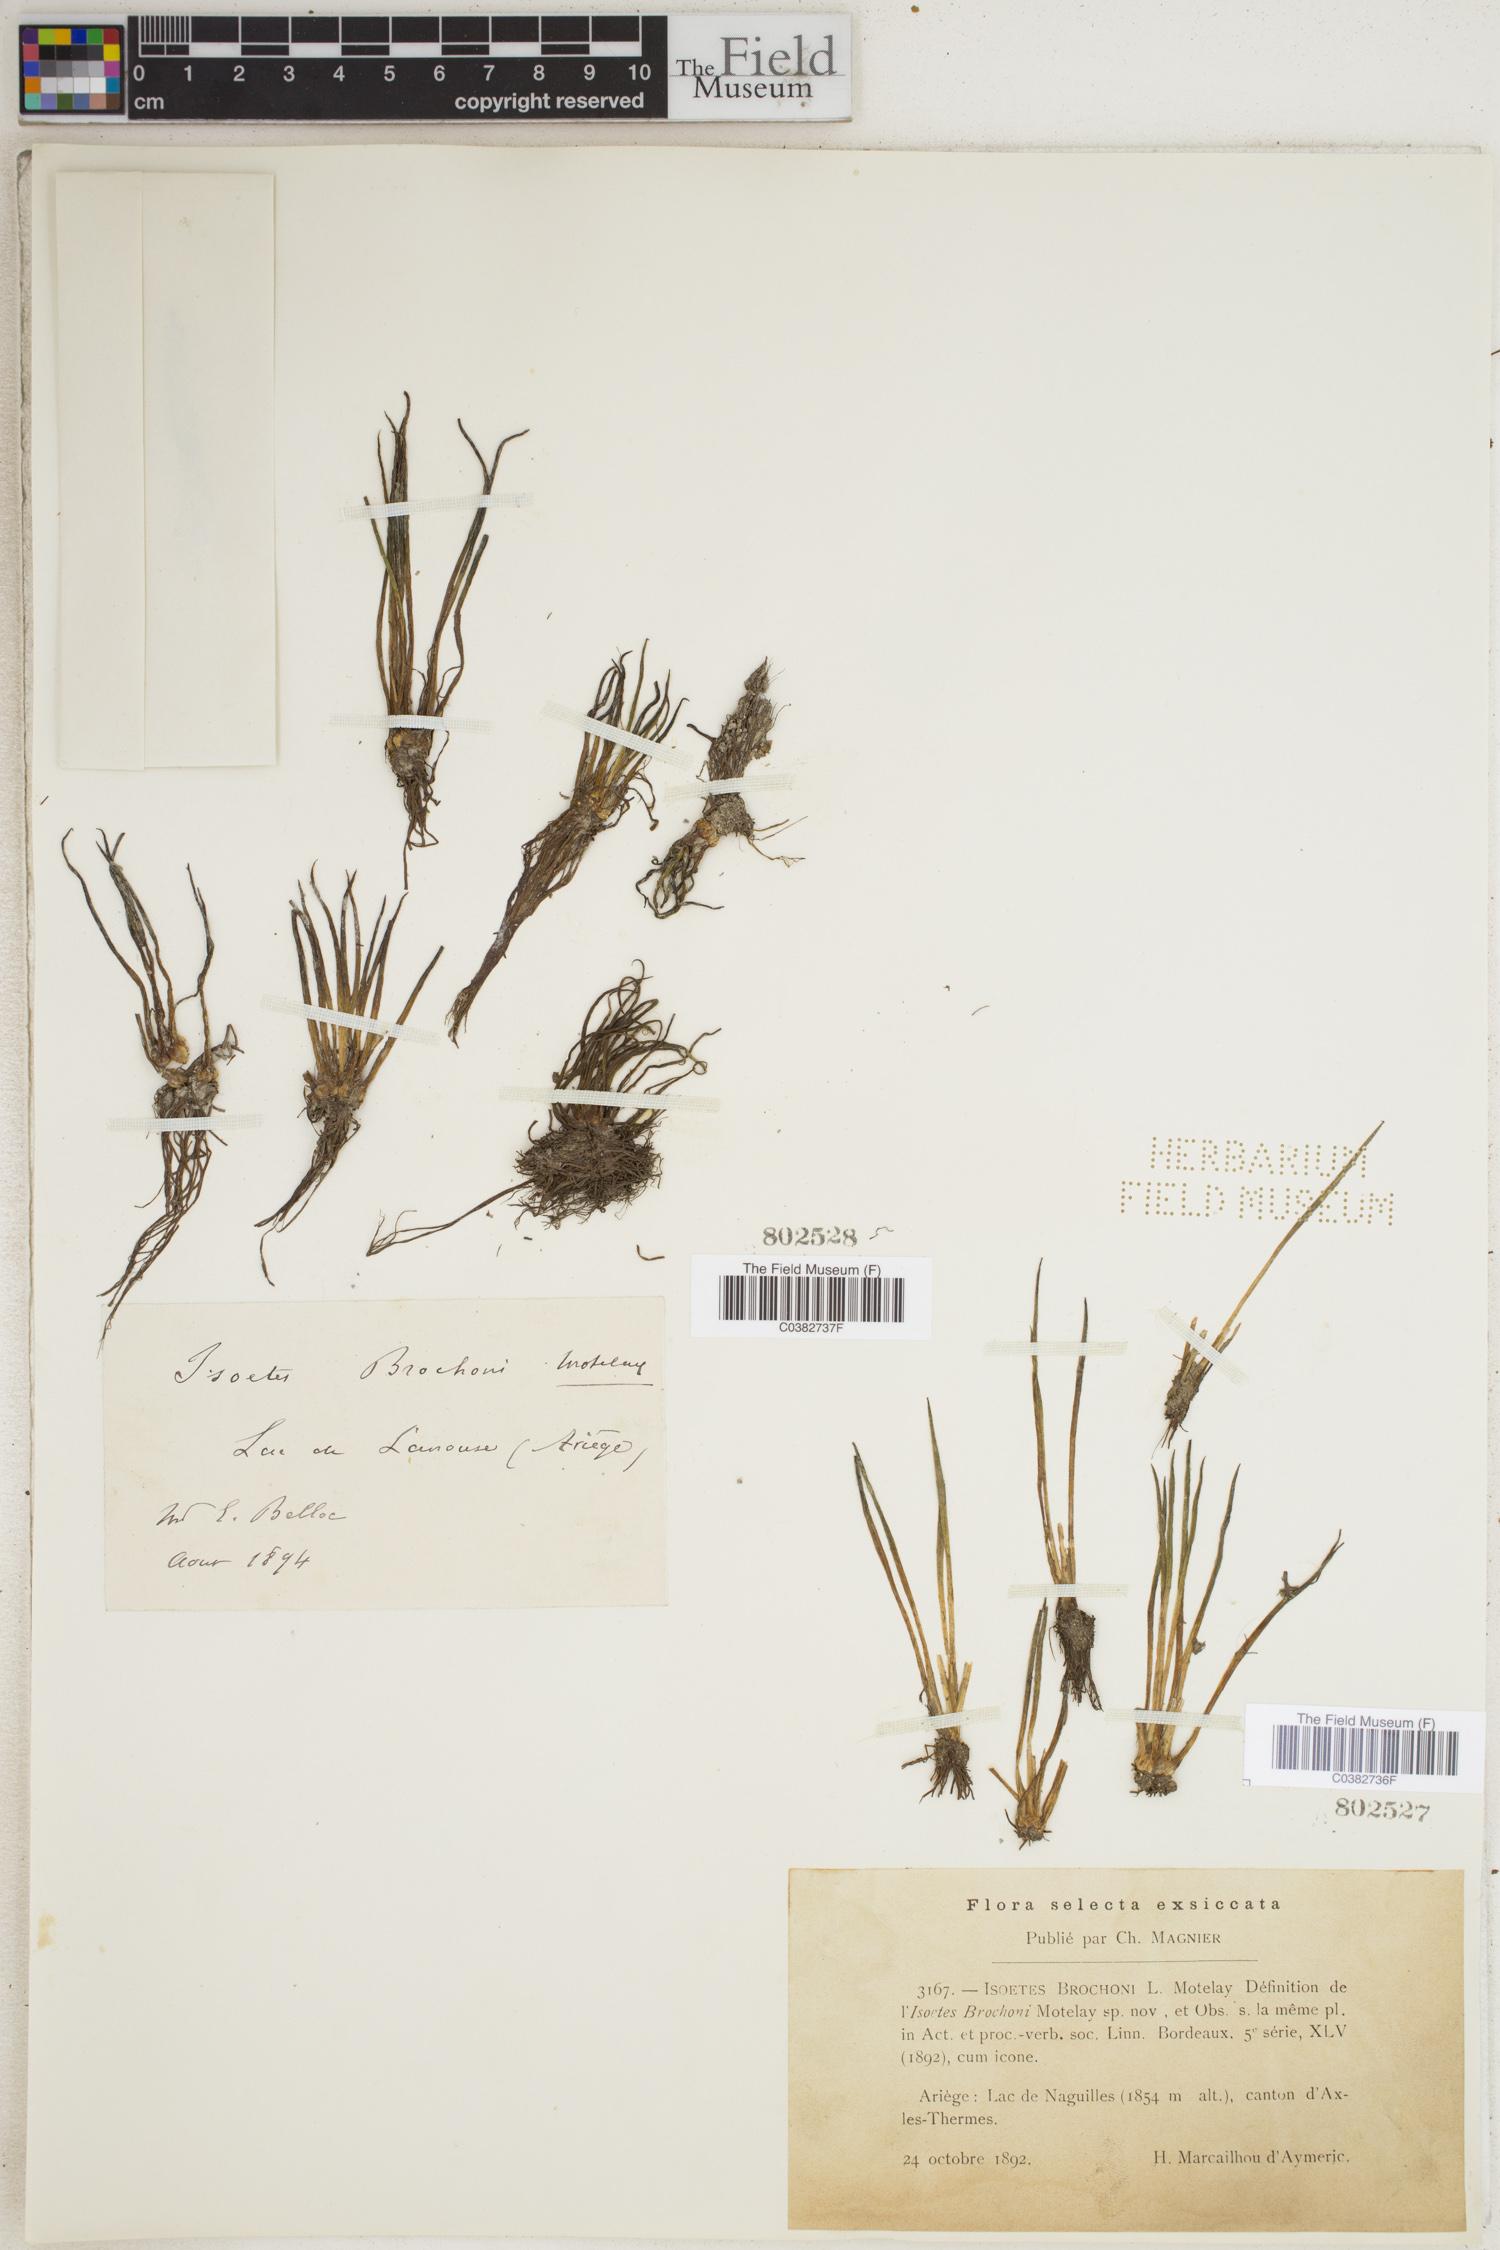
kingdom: Plantae
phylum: Tracheophyta
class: Lycopodiopsida
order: Isoetales
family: Isoetaceae
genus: Isoetes
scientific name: Isoetes lacustris
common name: Common quillwort
